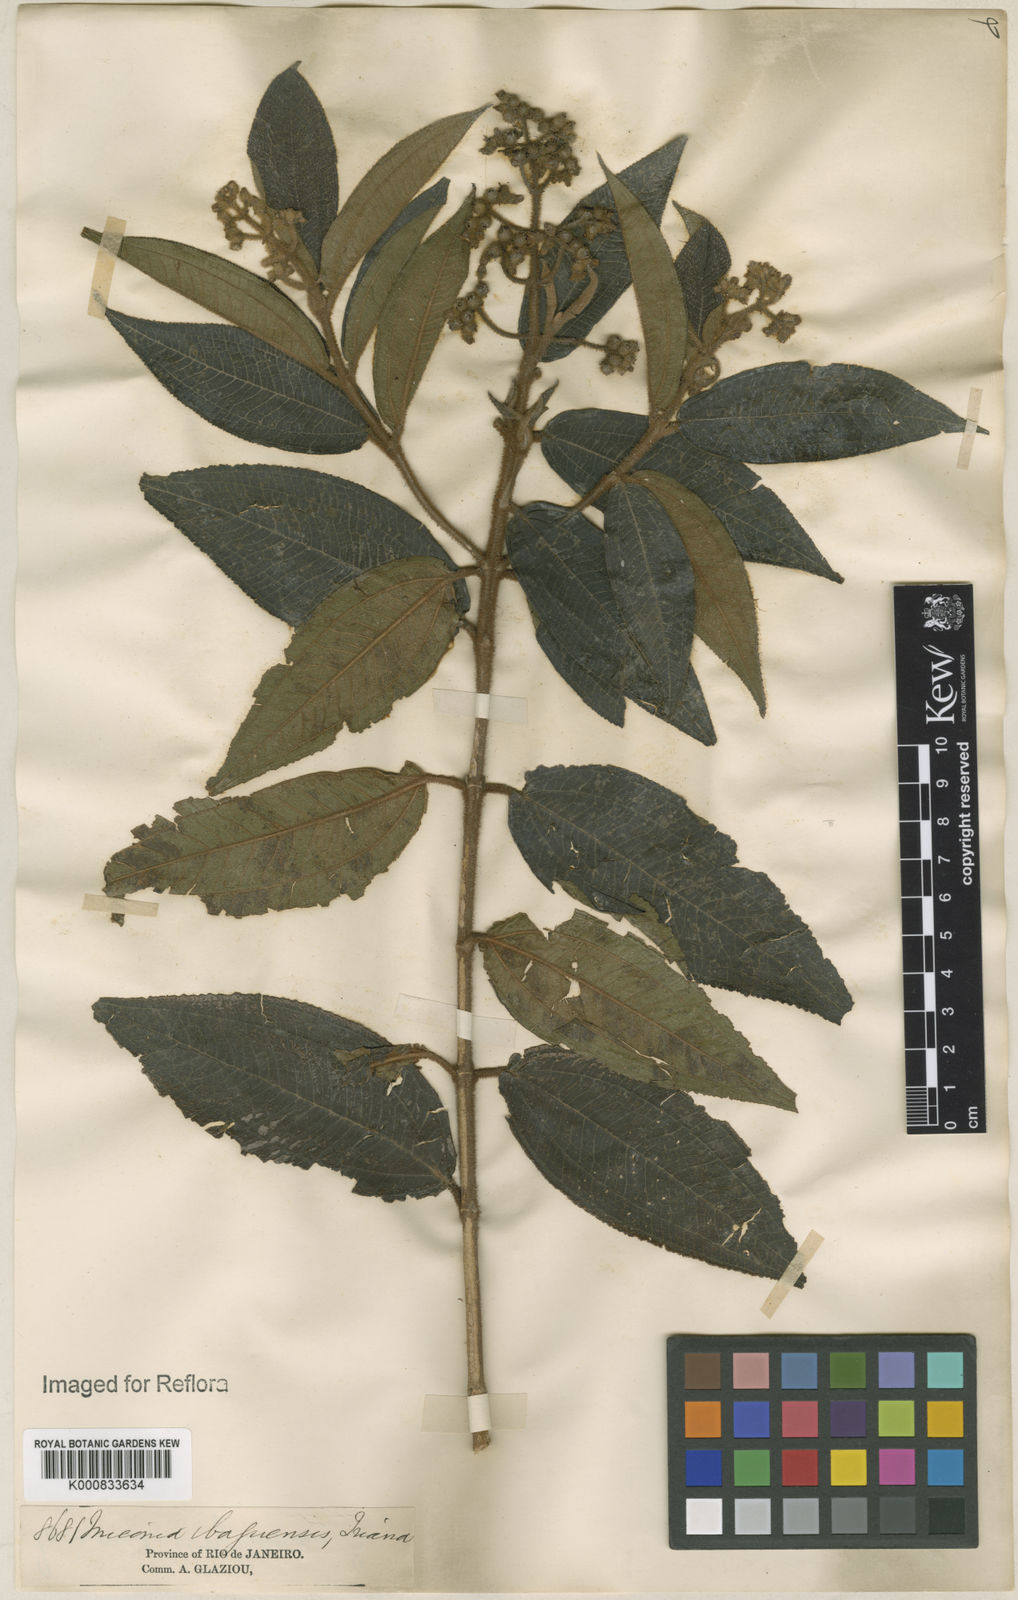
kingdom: Plantae
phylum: Tracheophyta
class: Magnoliopsida
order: Myrtales
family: Melastomataceae
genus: Miconia
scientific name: Miconia ibaguensis
